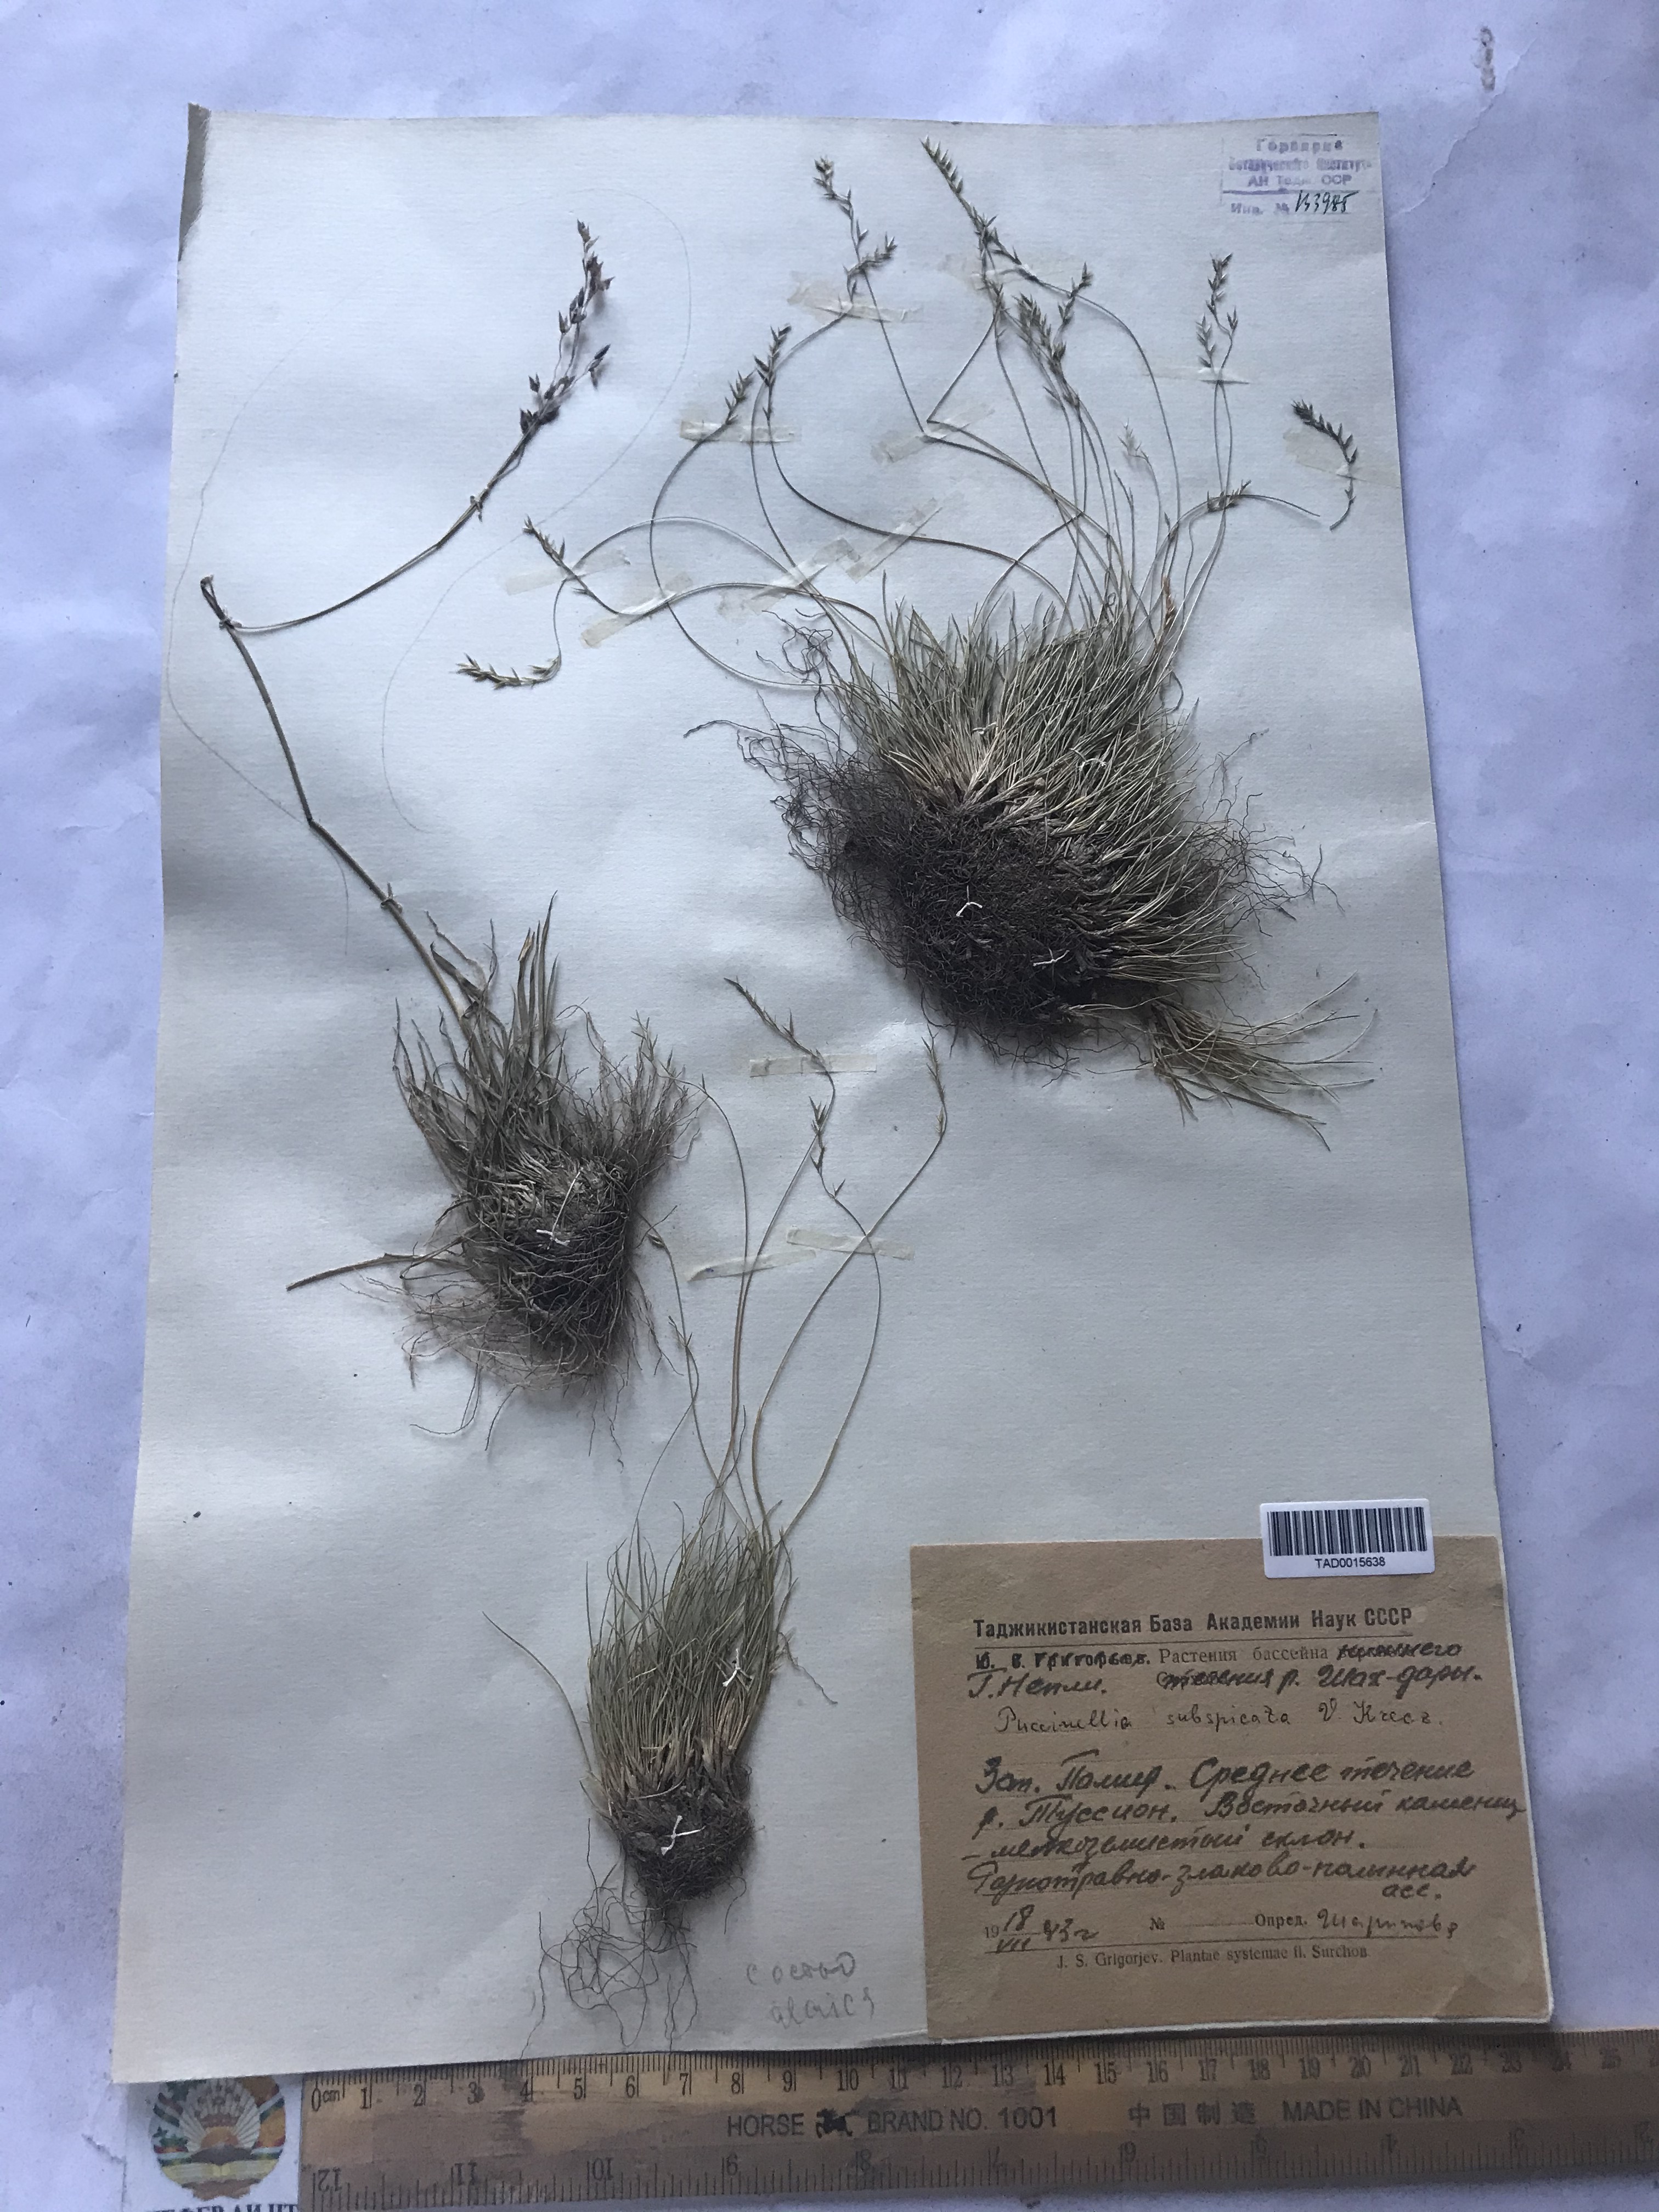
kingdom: Plantae
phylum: Tracheophyta
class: Liliopsida
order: Poales
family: Poaceae
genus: Puccinellia
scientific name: Puccinellia subspicata
